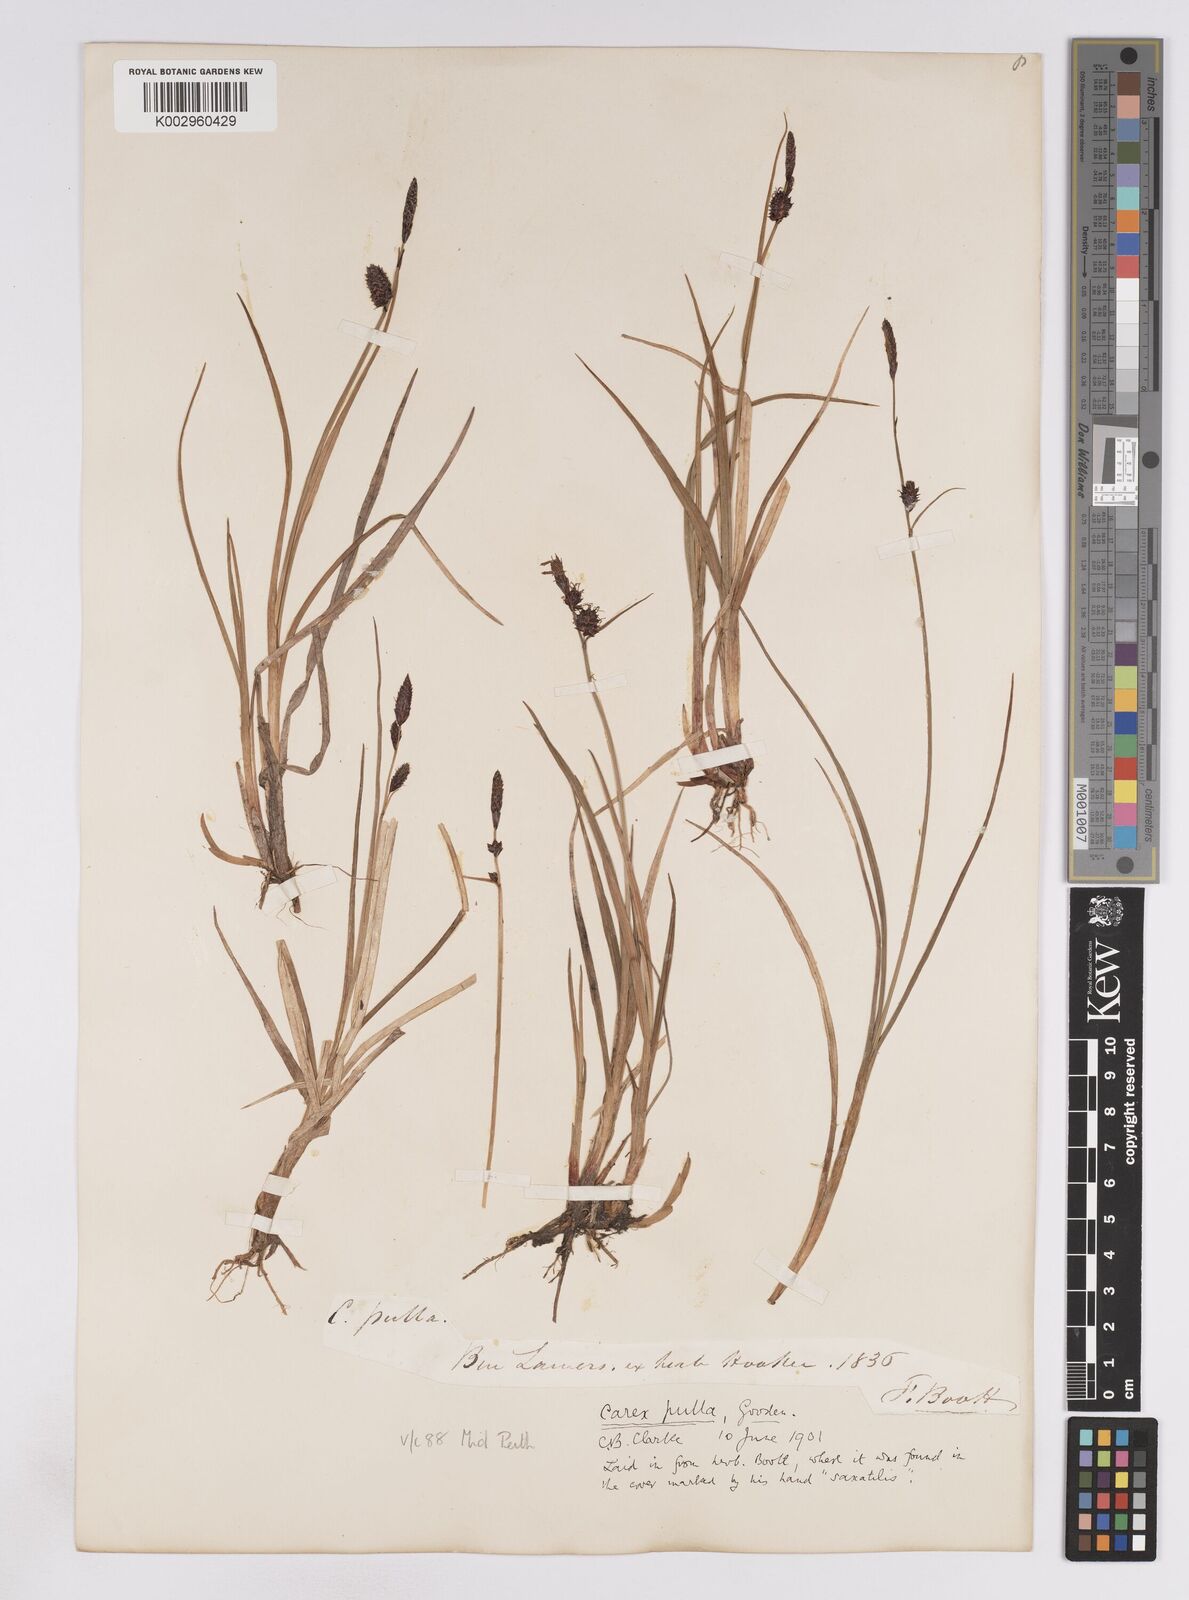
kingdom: Plantae
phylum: Tracheophyta
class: Liliopsida
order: Poales
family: Cyperaceae
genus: Carex
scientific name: Carex saxatilis
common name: Russet sedge
